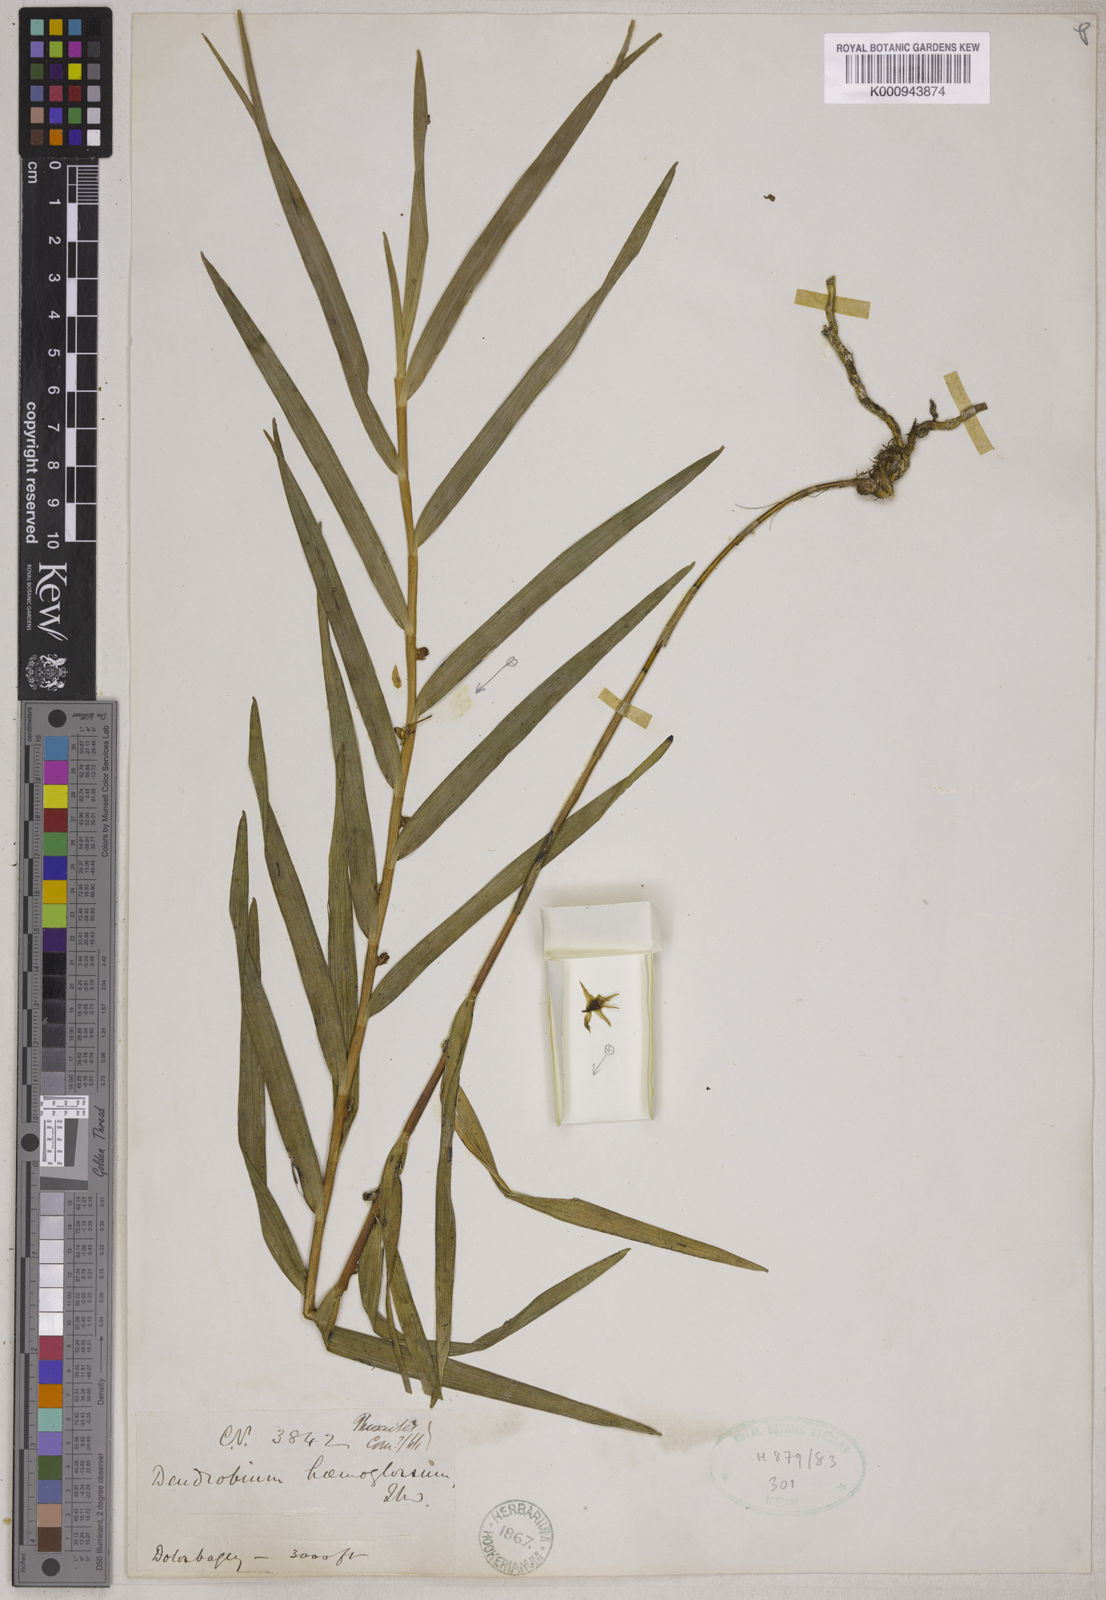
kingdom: Plantae
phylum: Tracheophyta
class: Liliopsida
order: Asparagales
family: Orchidaceae
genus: Dendrobium
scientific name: Dendrobium salaccense
